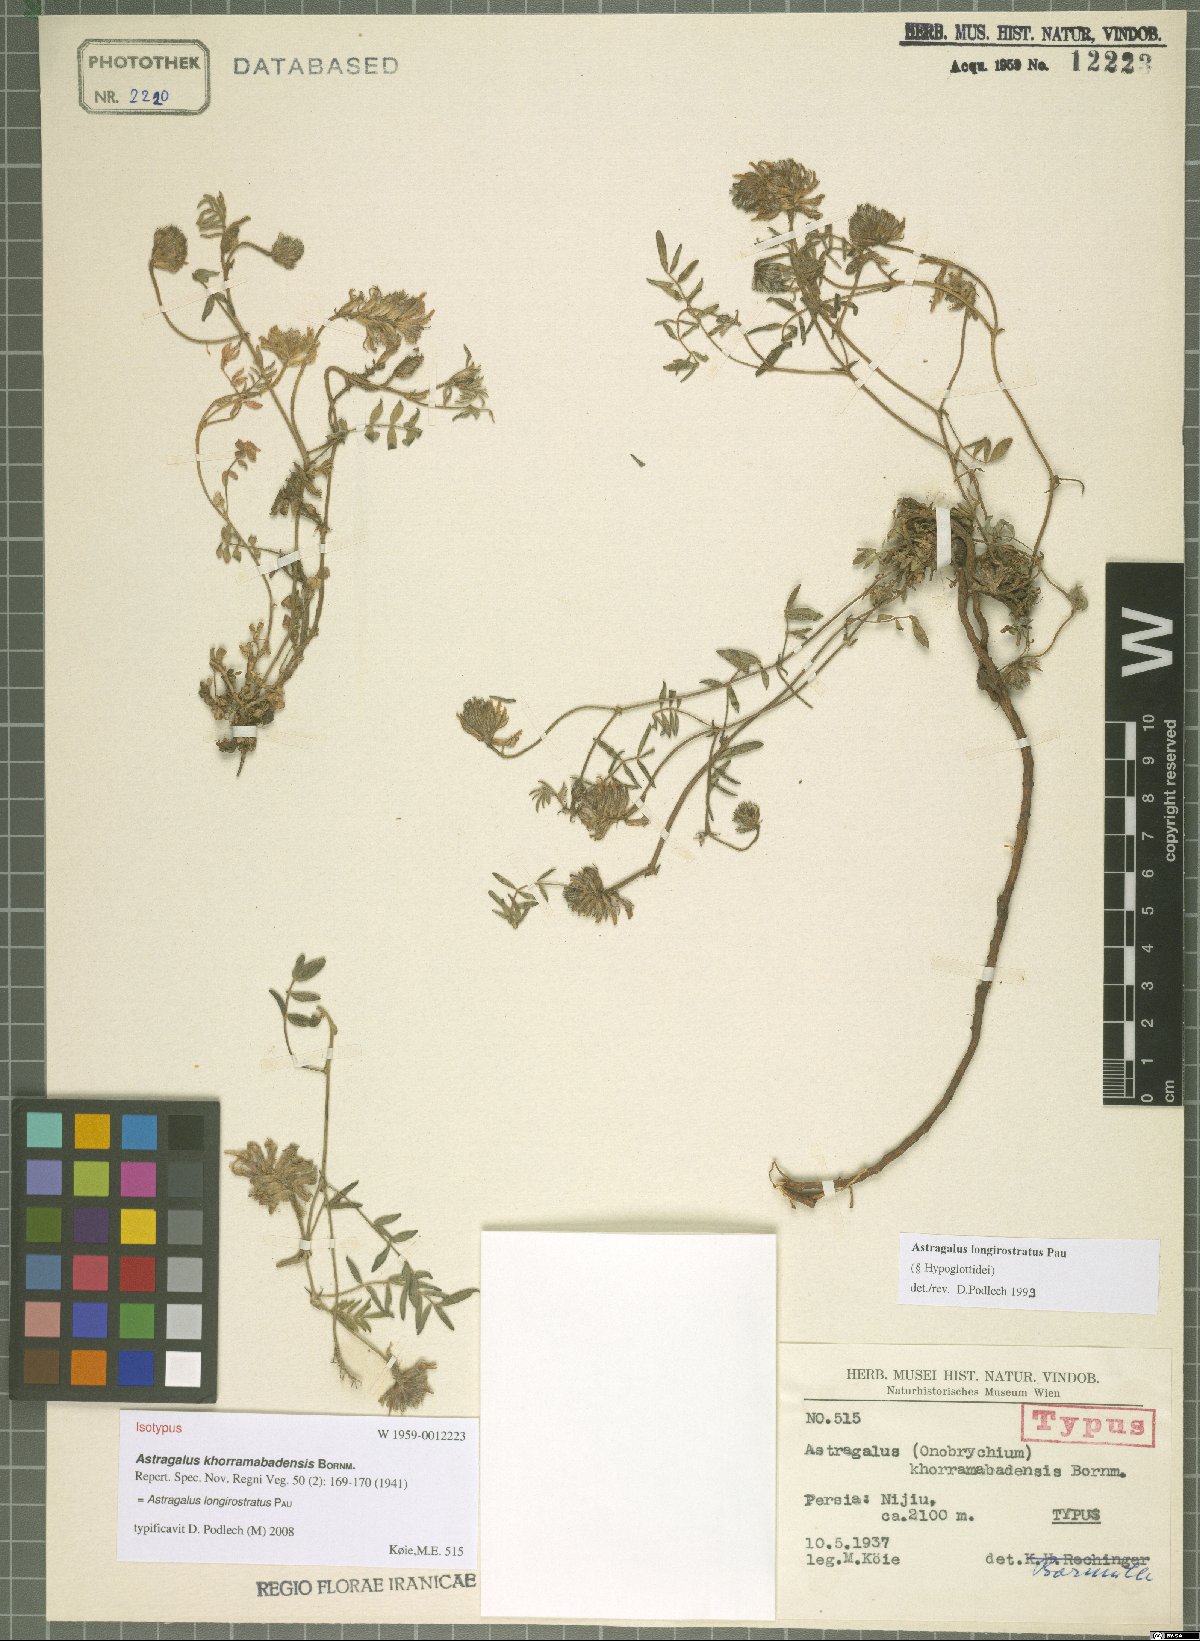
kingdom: Plantae
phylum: Tracheophyta
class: Magnoliopsida
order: Fabales
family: Fabaceae
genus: Astragalus
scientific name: Astragalus longirostratus
